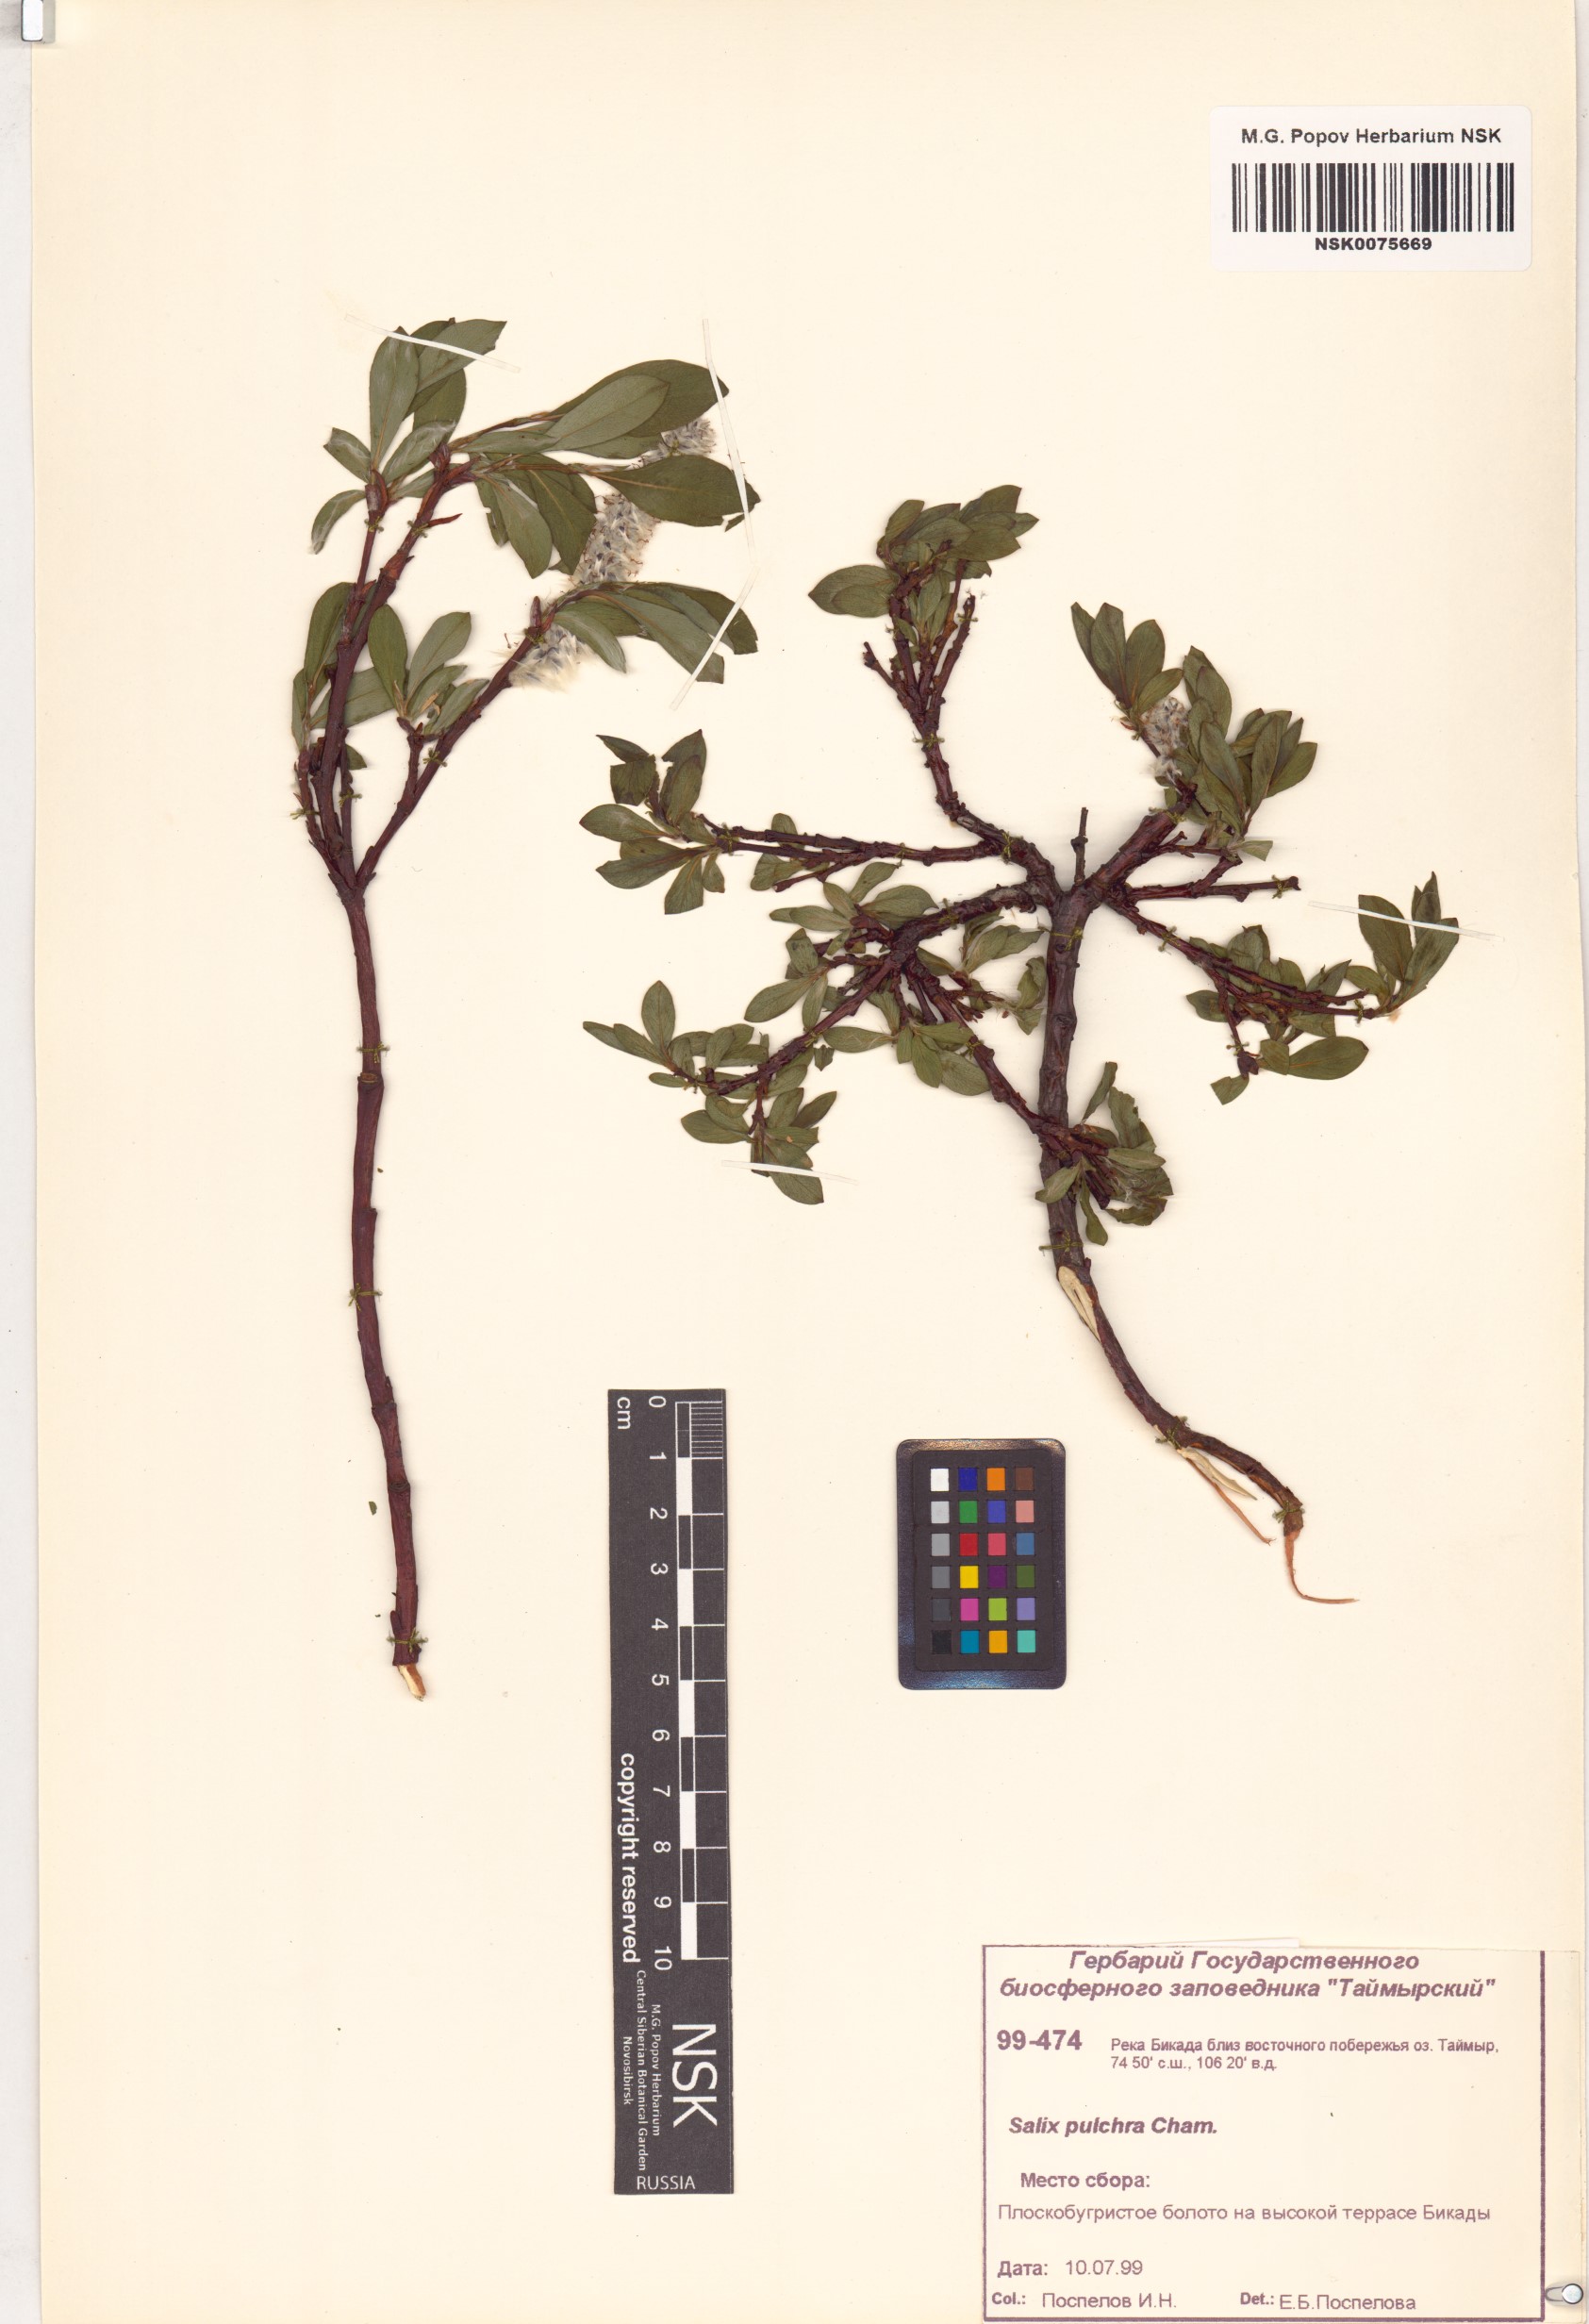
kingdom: Plantae
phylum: Tracheophyta
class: Magnoliopsida
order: Malpighiales
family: Salicaceae
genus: Salix
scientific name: Salix pulchra
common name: Diamond-leaved willow
